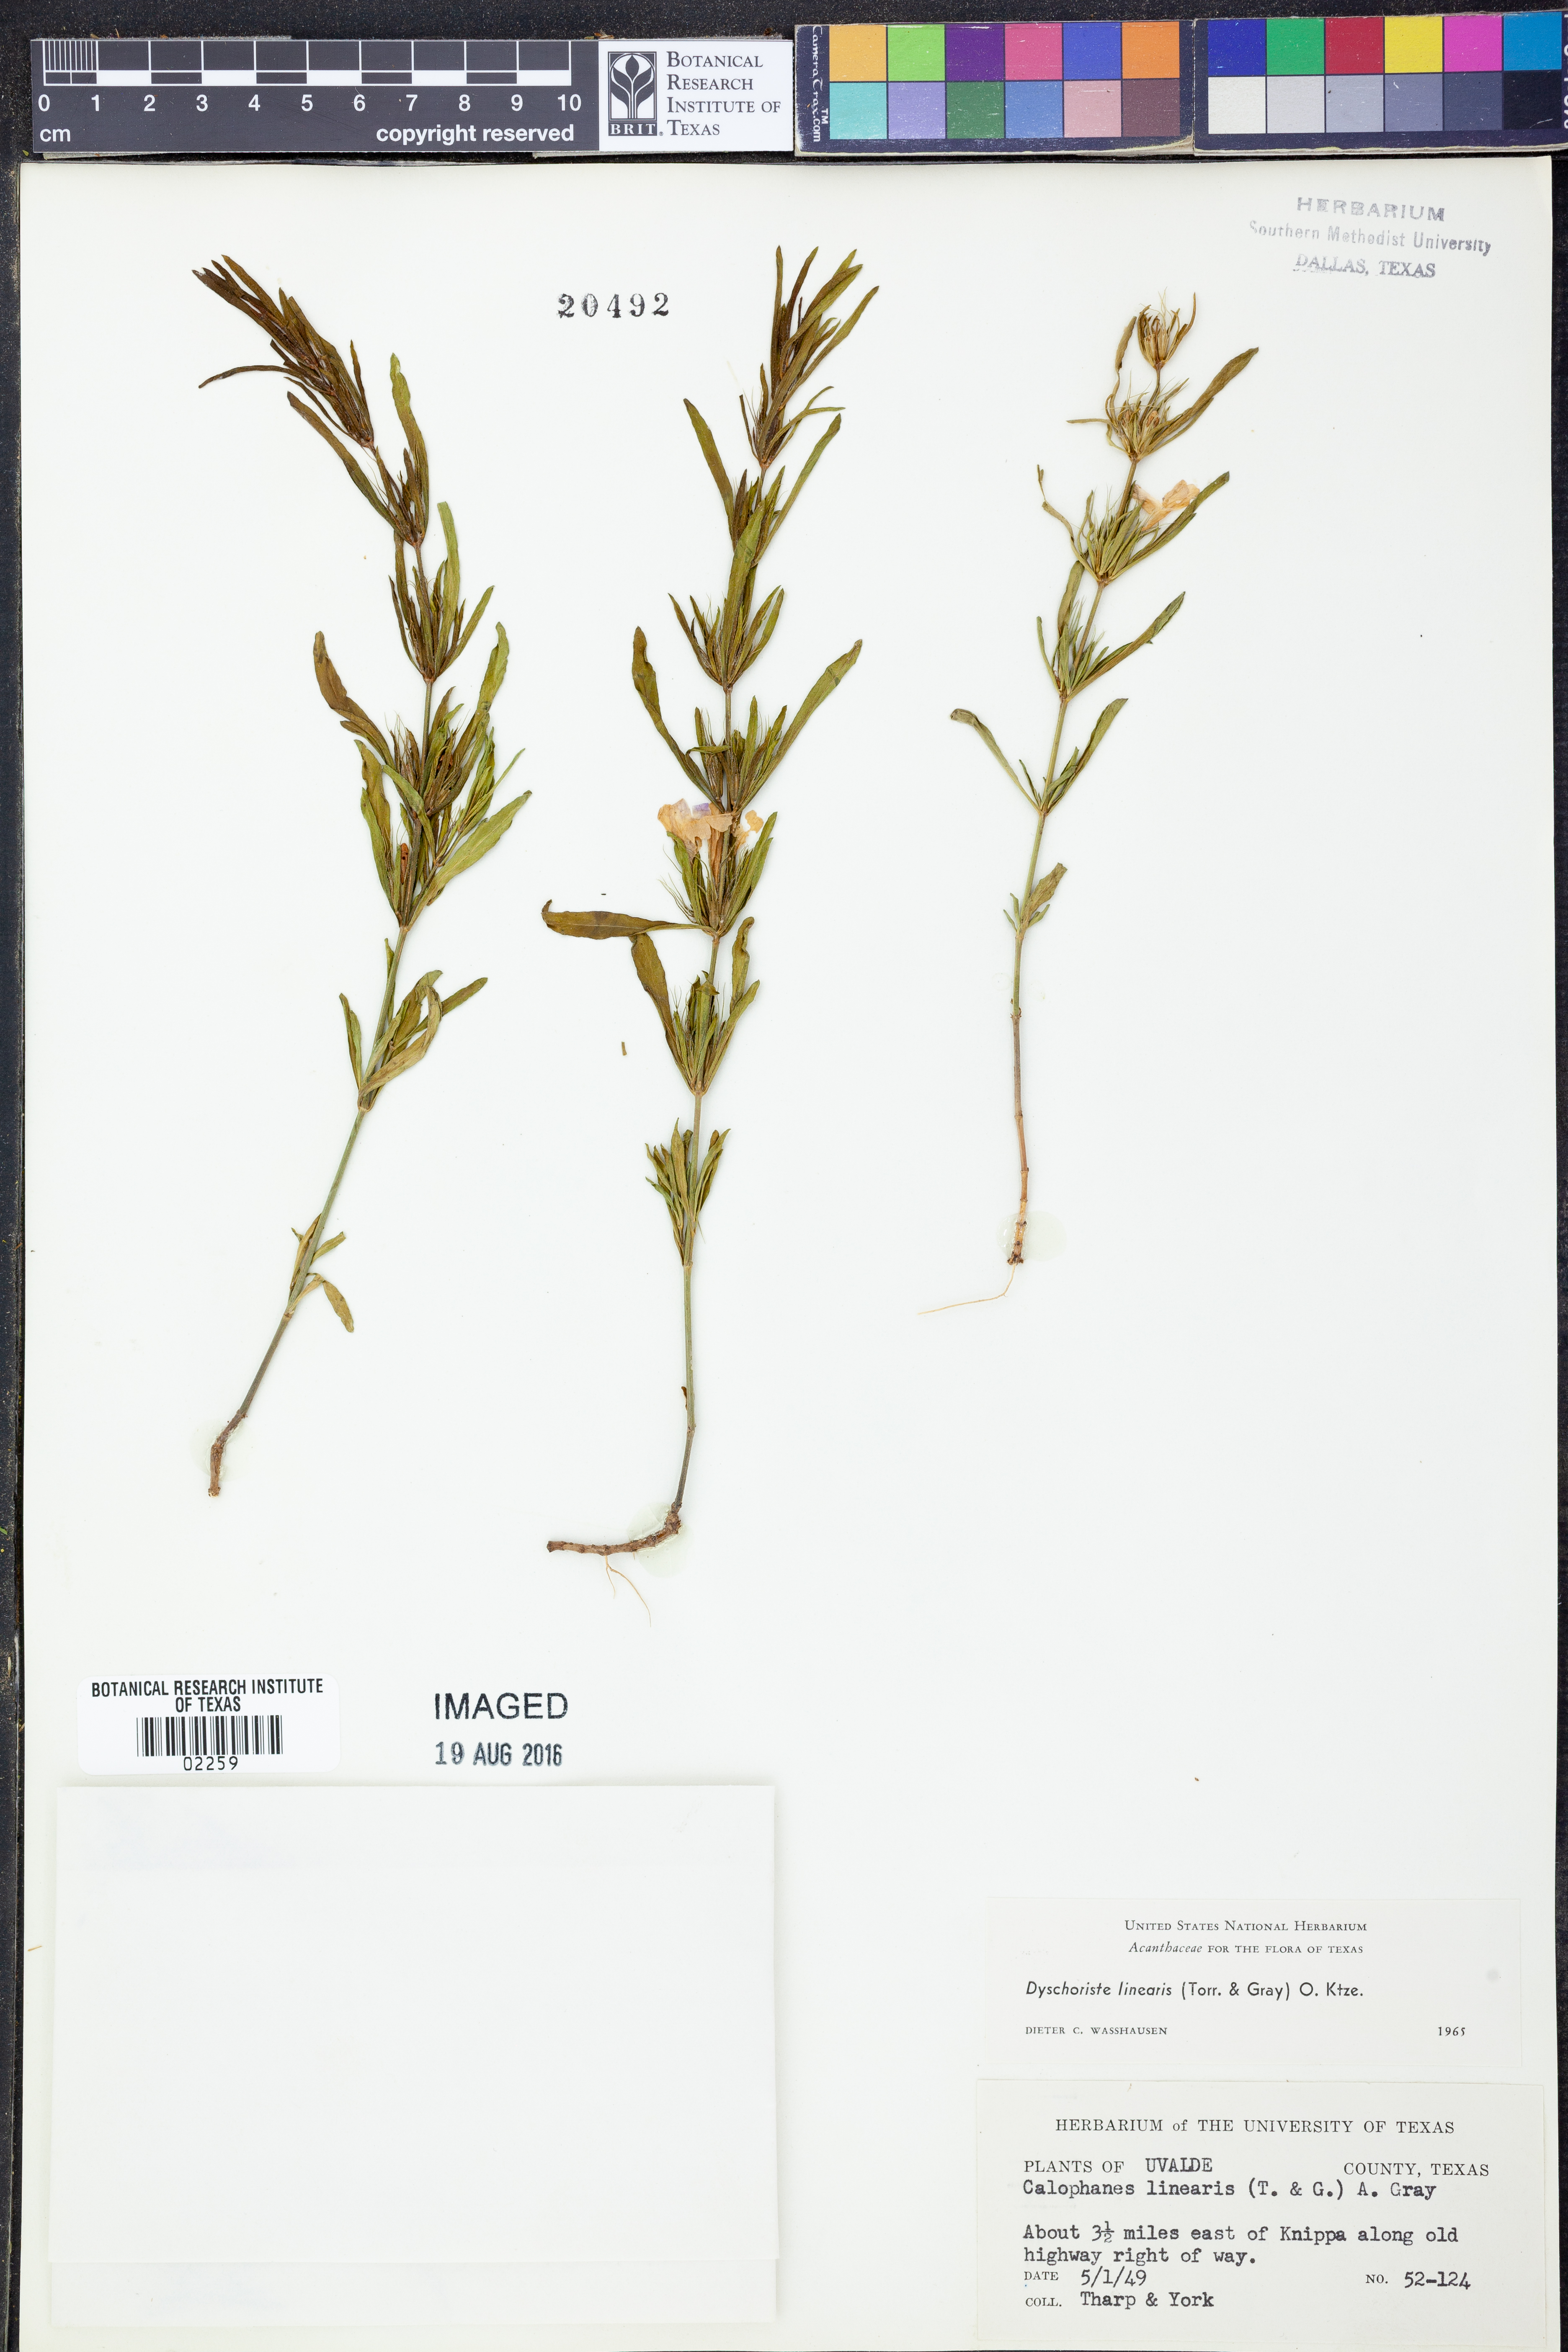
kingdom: Plantae
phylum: Tracheophyta
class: Magnoliopsida
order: Lamiales
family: Acanthaceae
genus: Dyschoriste
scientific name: Dyschoriste linearis
